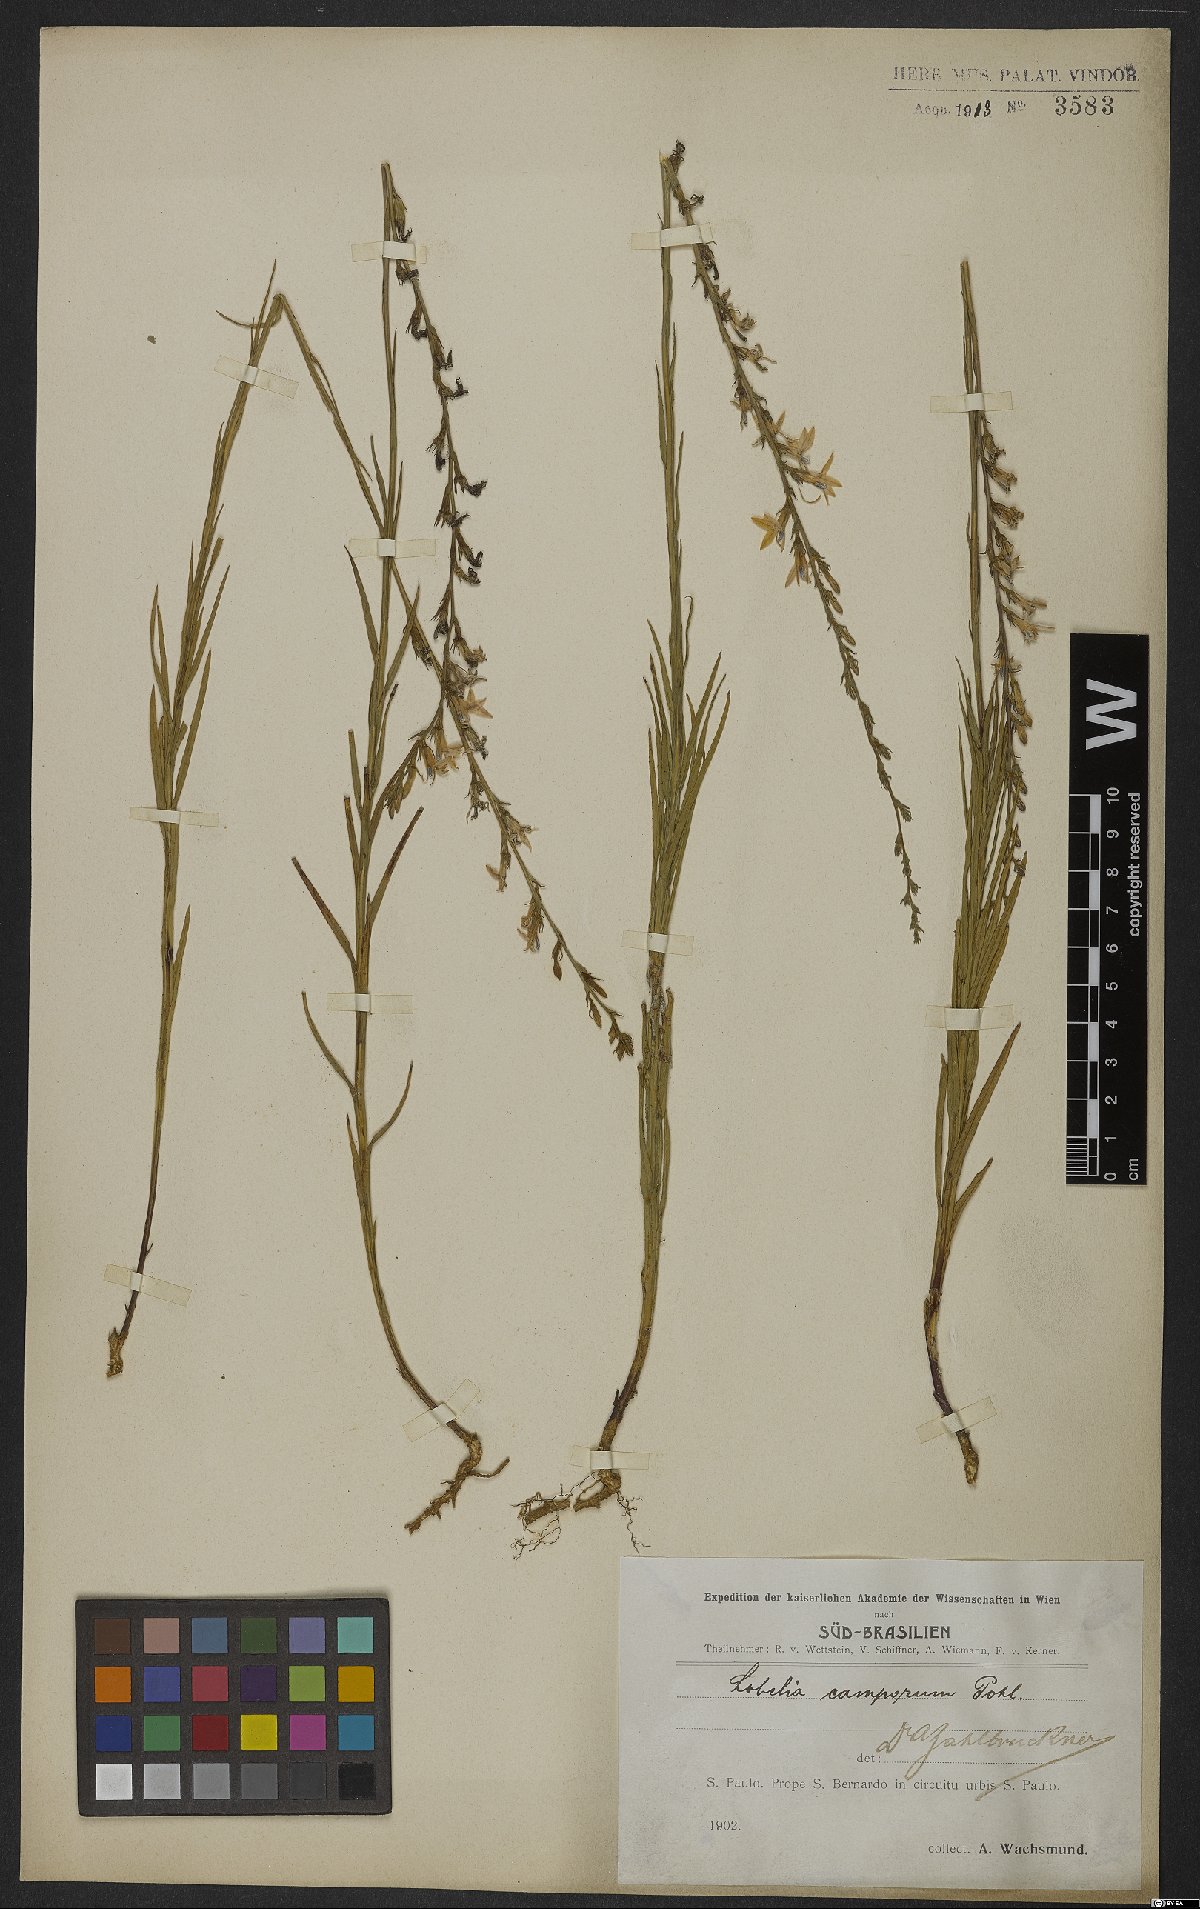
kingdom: Plantae
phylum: Tracheophyta
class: Magnoliopsida
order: Asterales
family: Campanulaceae
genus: Lobelia
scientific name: Lobelia camporum
